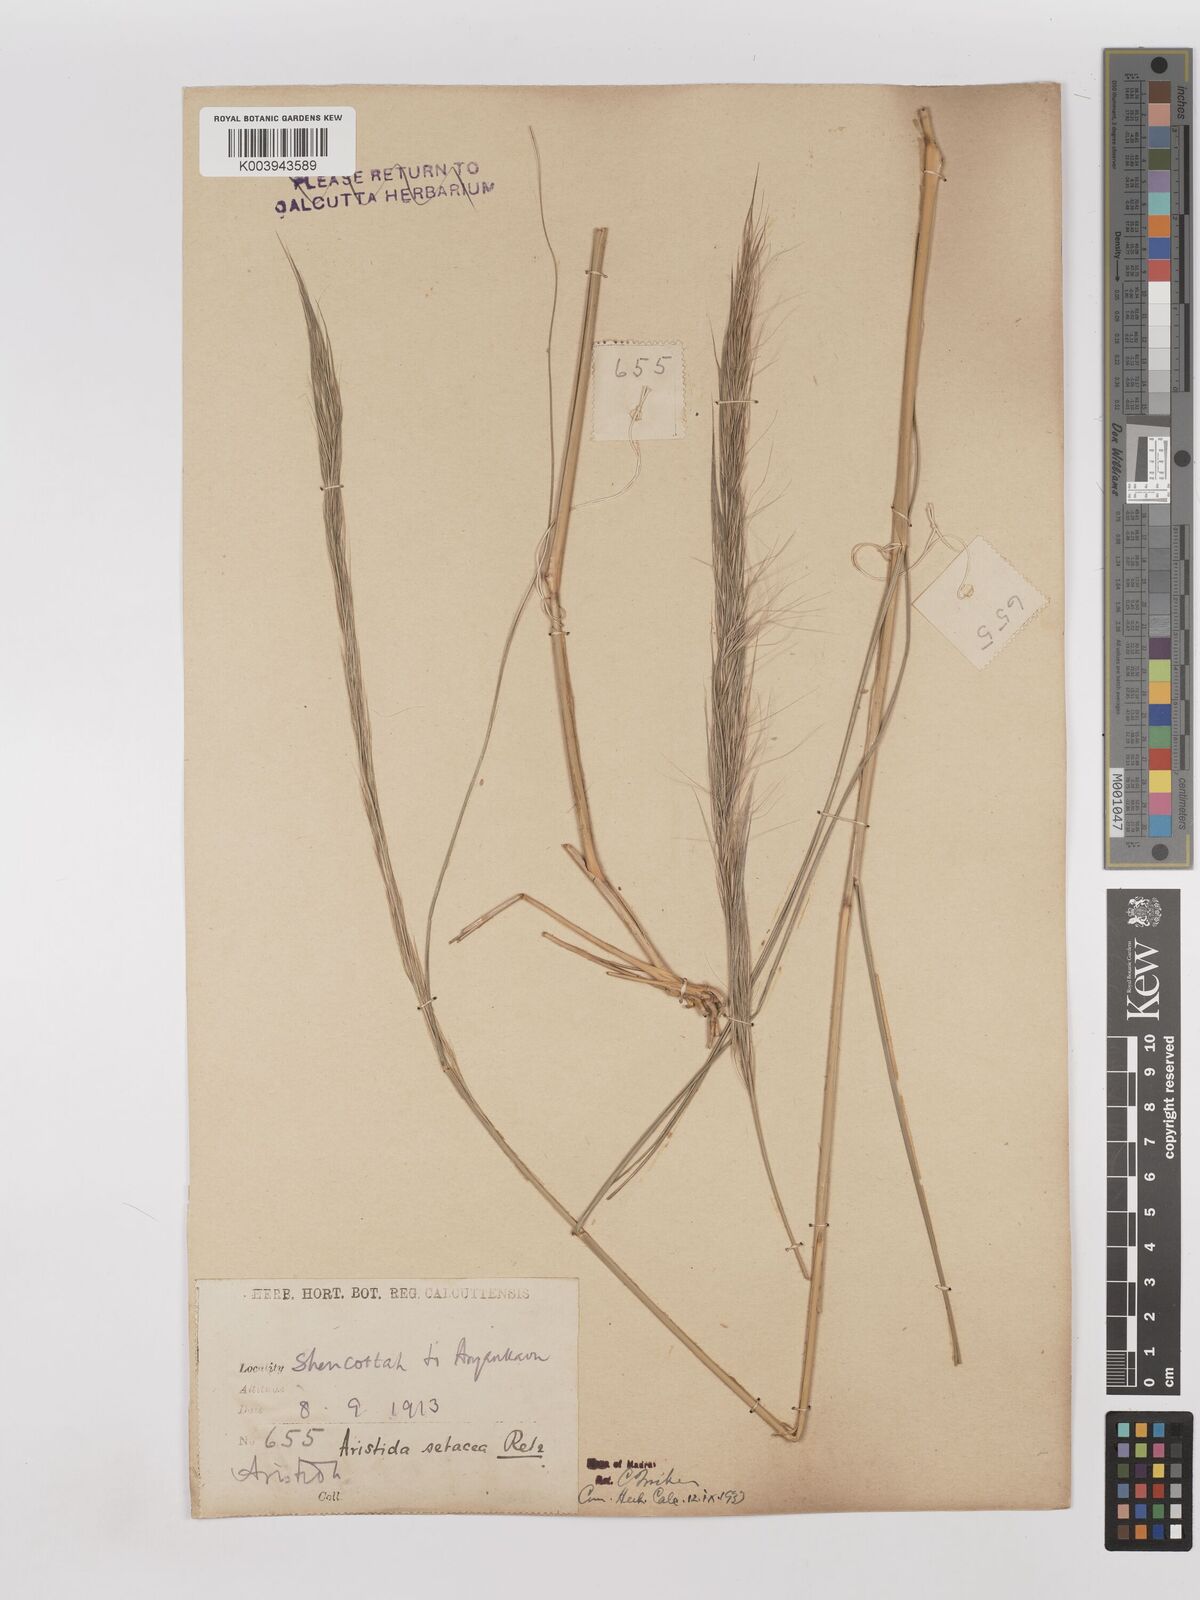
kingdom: Plantae
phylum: Tracheophyta
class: Liliopsida
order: Poales
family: Poaceae
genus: Aristida
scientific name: Aristida setacea
